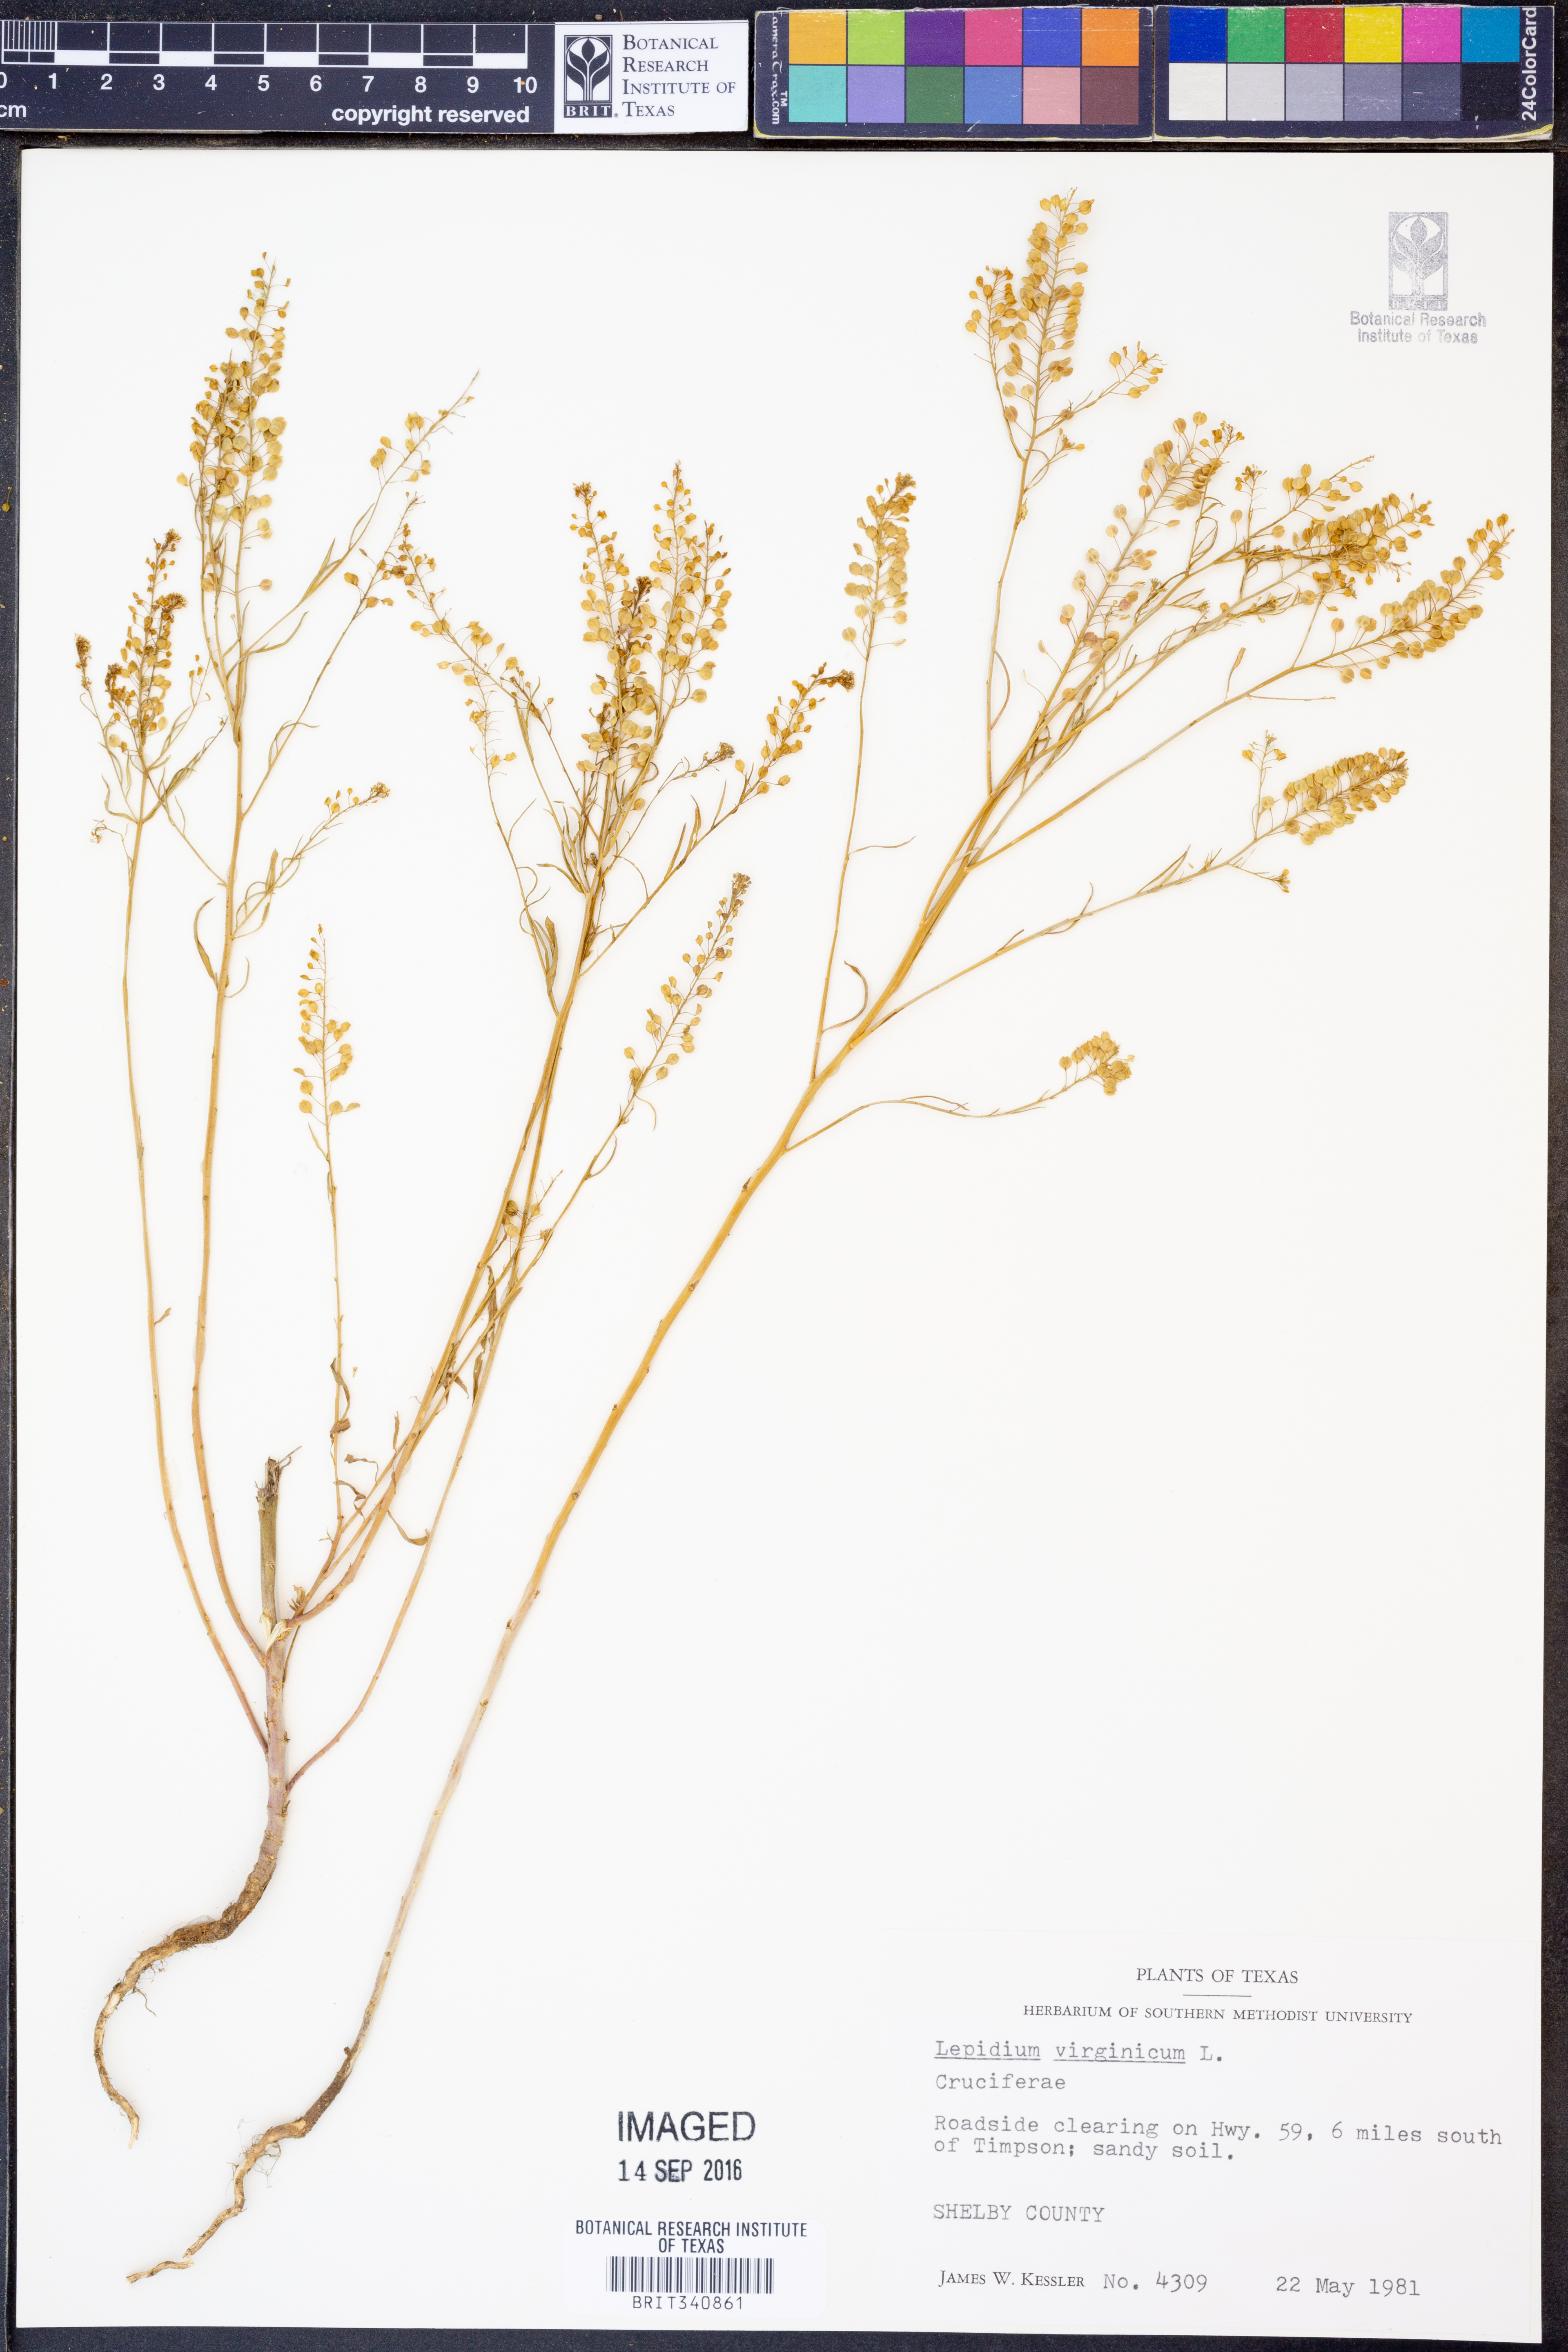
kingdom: Plantae
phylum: Tracheophyta
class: Magnoliopsida
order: Brassicales
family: Brassicaceae
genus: Lepidium
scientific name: Lepidium virginicum
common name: Least pepperwort
